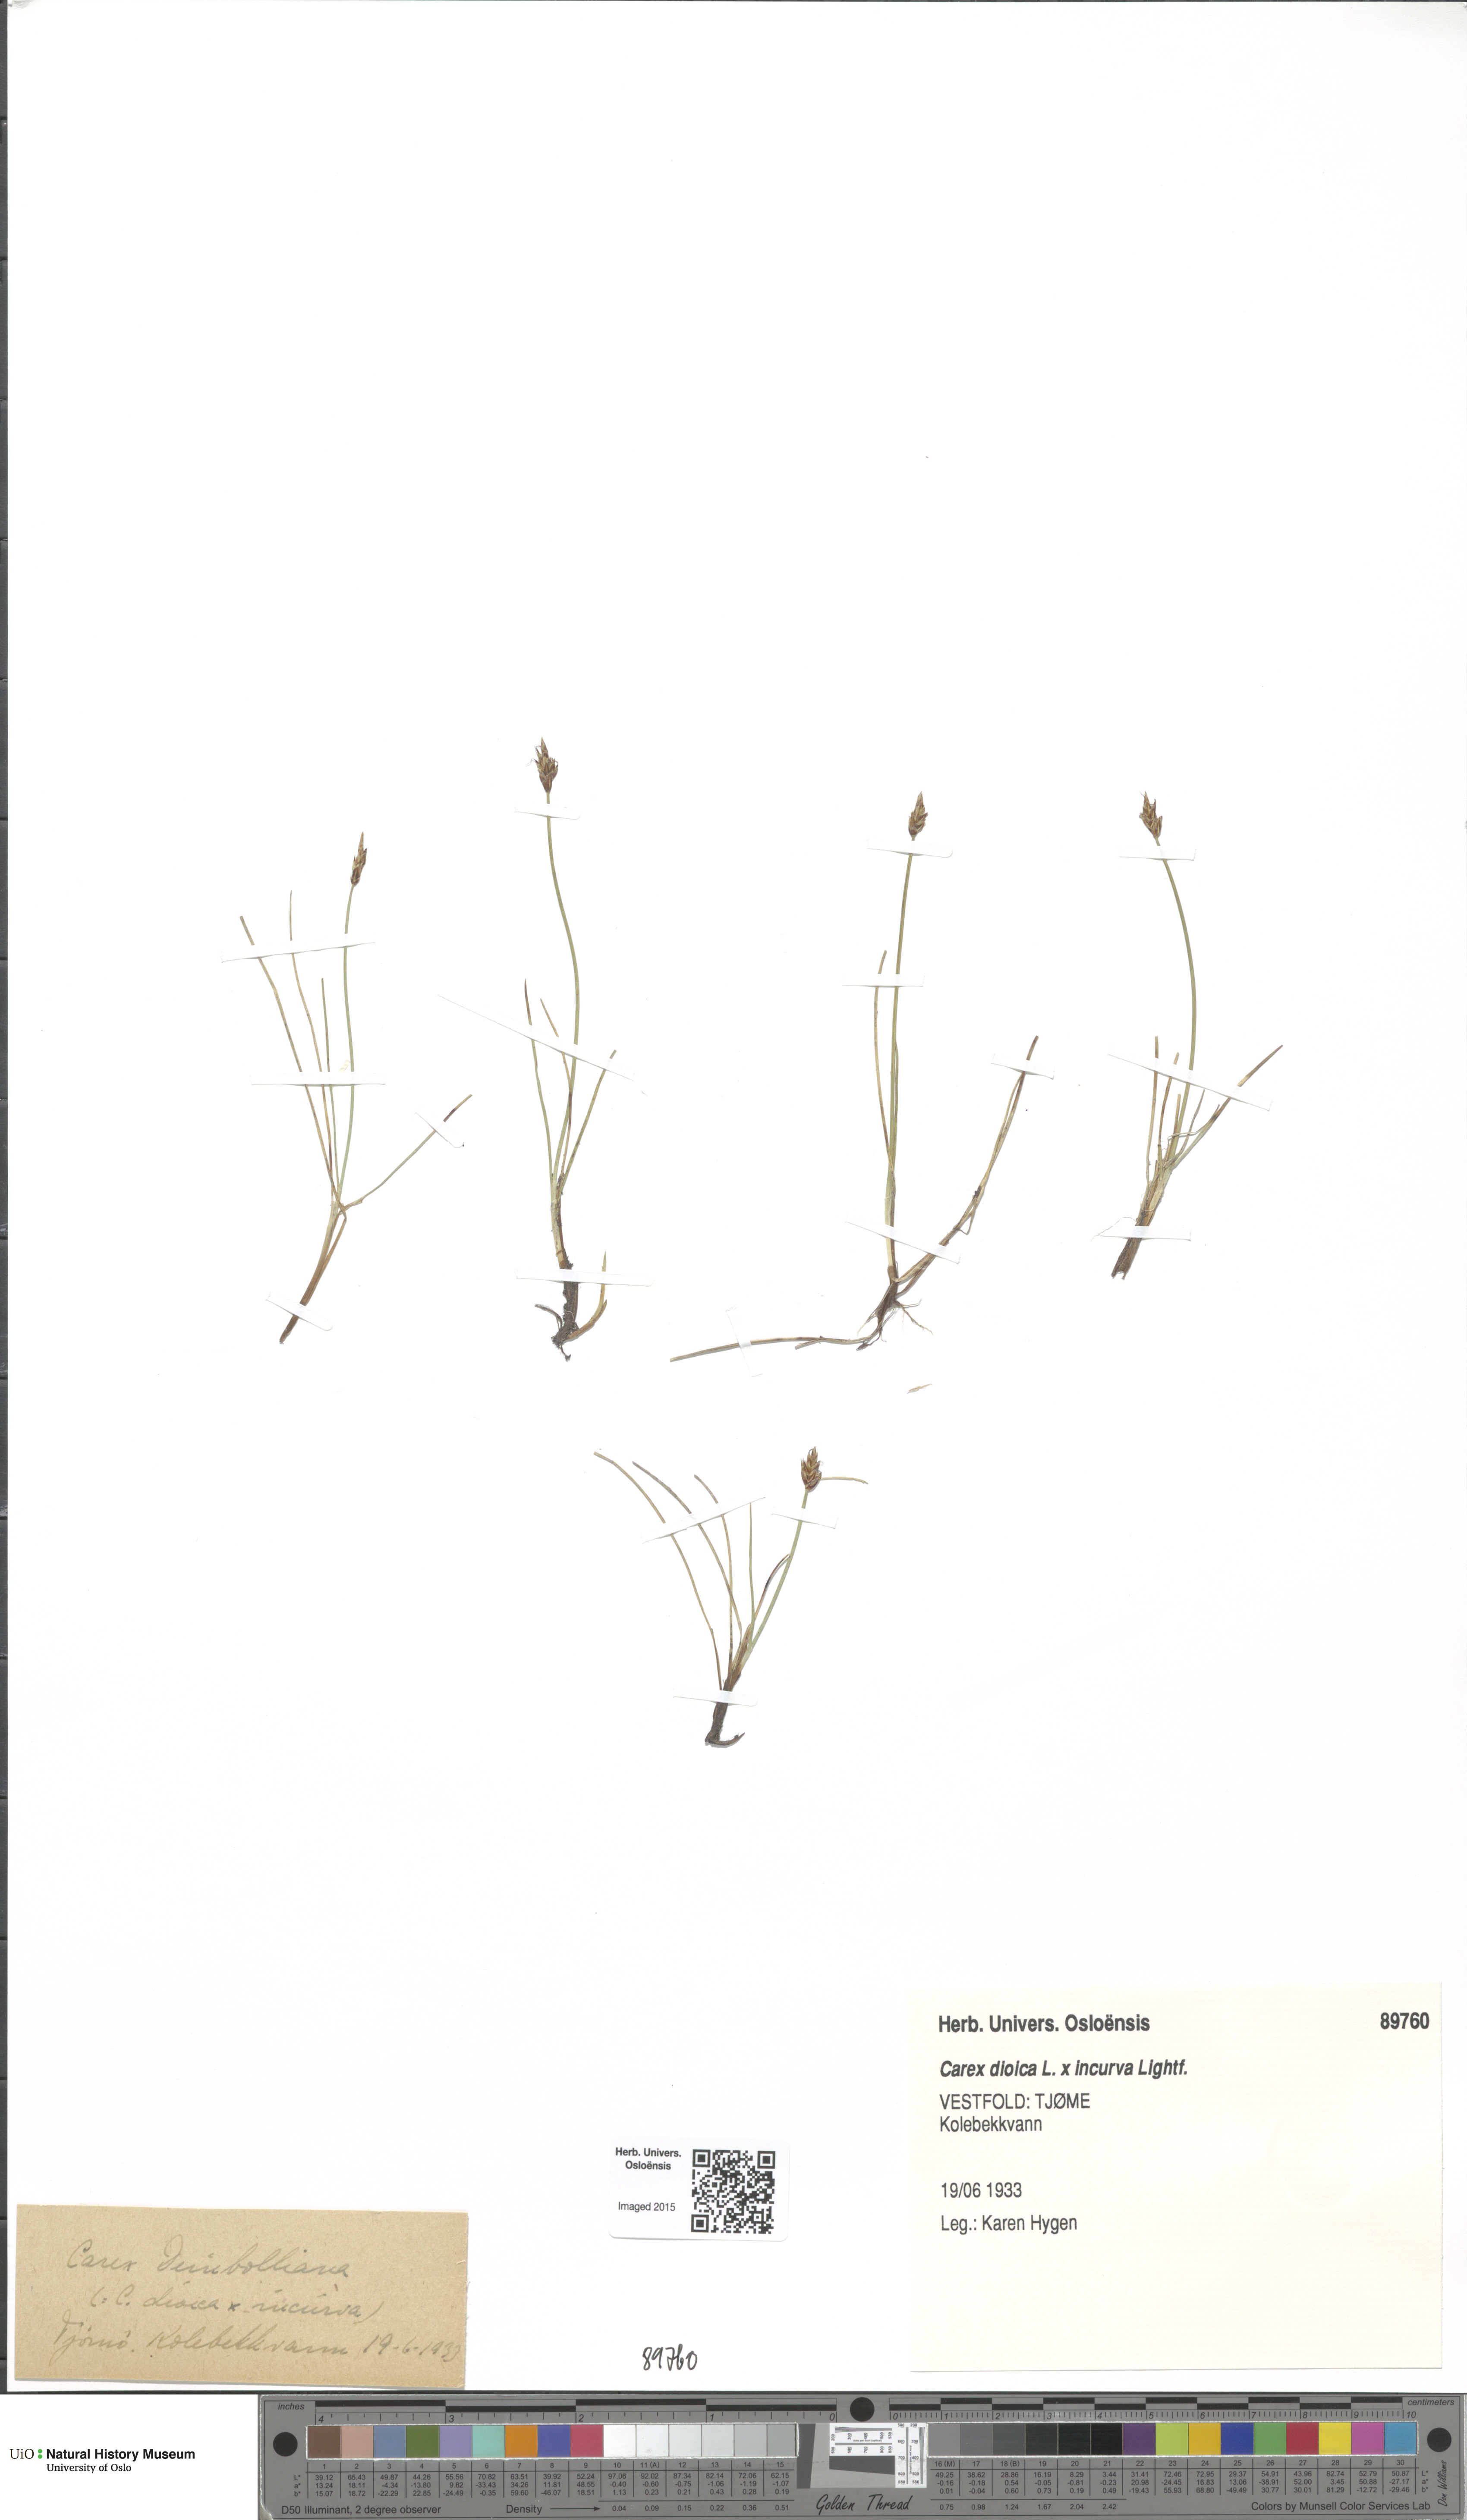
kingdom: Plantae
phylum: Tracheophyta
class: Liliopsida
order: Poales
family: Cyperaceae
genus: Carex
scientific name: Carex
